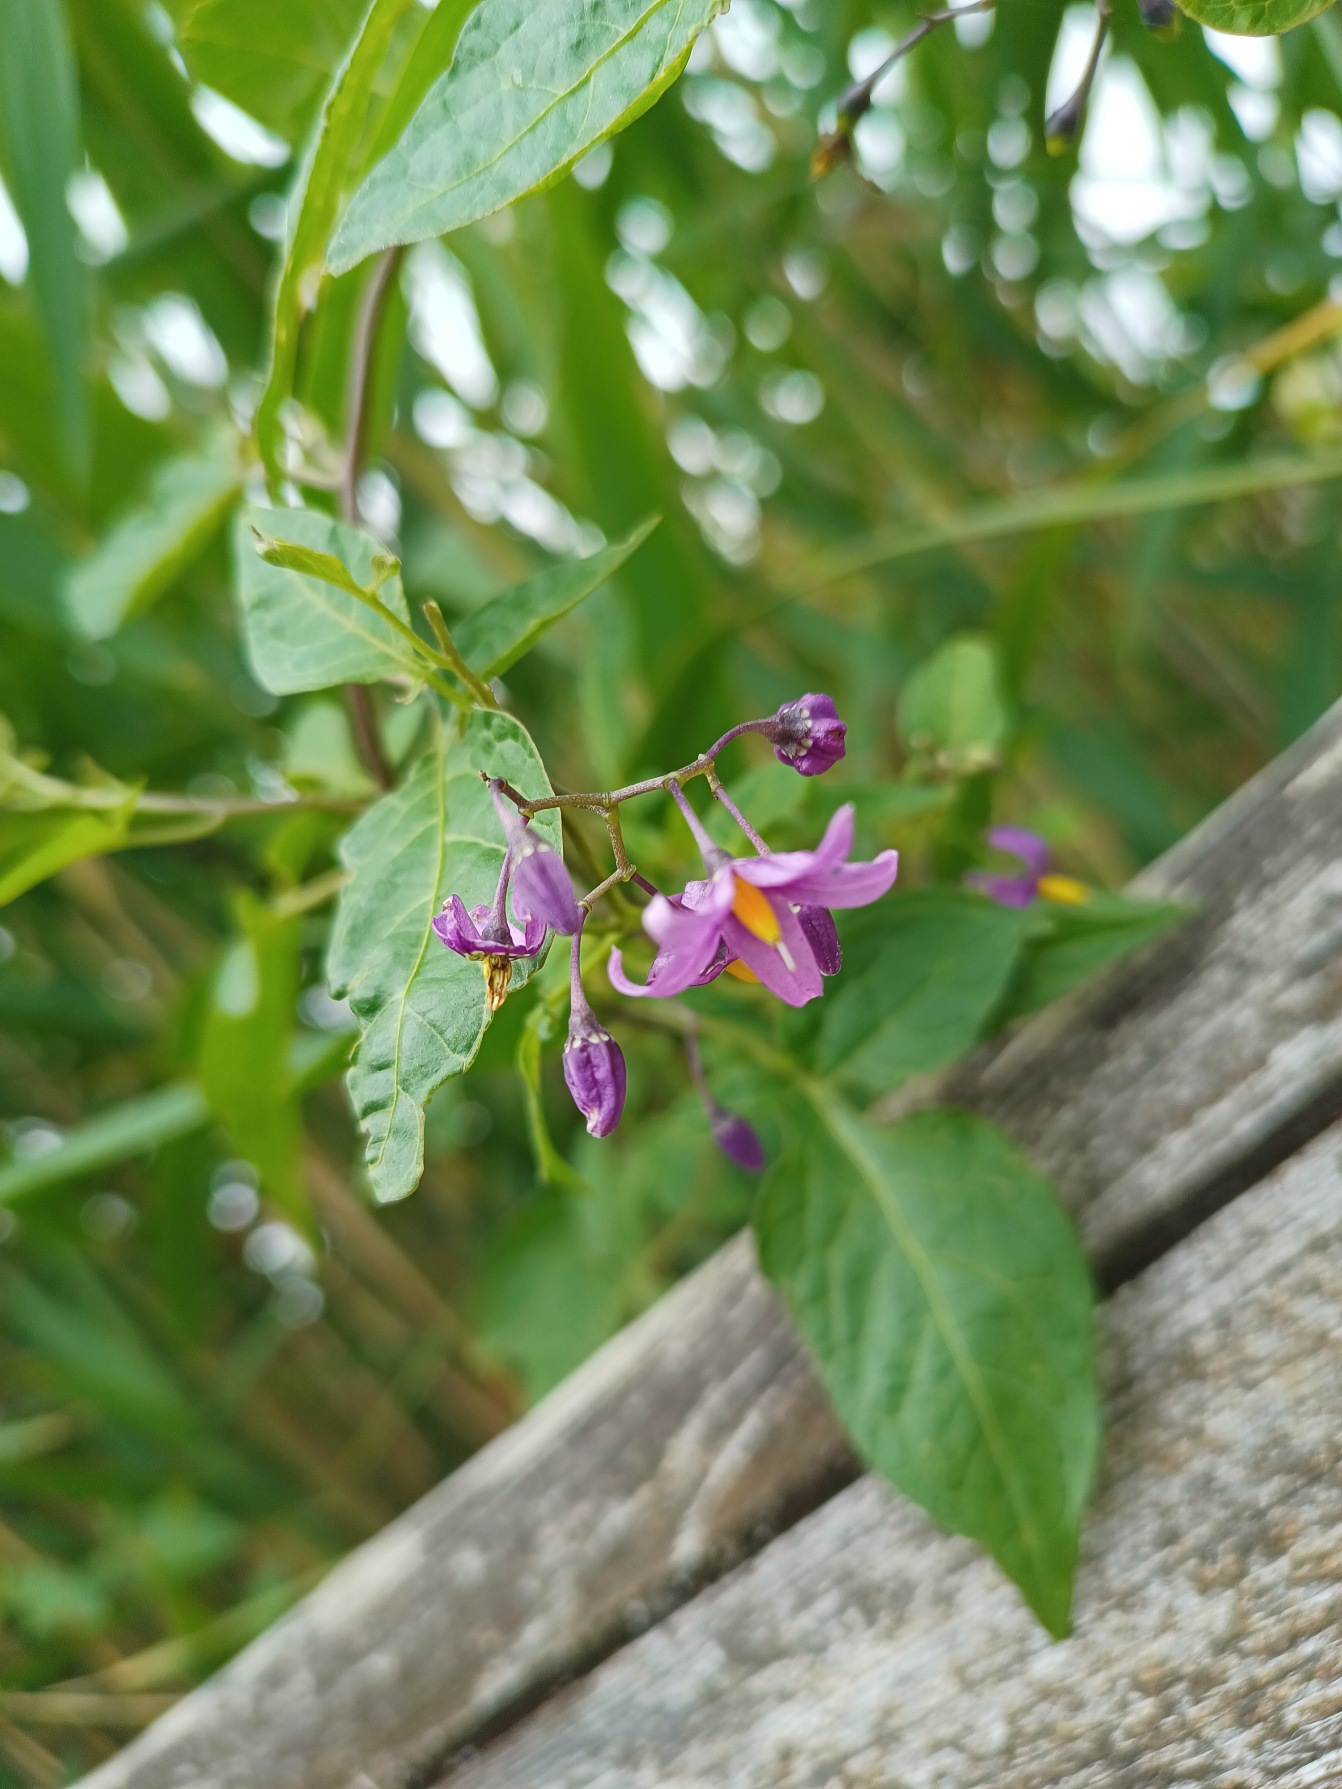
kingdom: Plantae
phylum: Tracheophyta
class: Magnoliopsida
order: Solanales
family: Solanaceae
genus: Solanum
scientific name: Solanum dulcamara
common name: Bittersød natskygge
